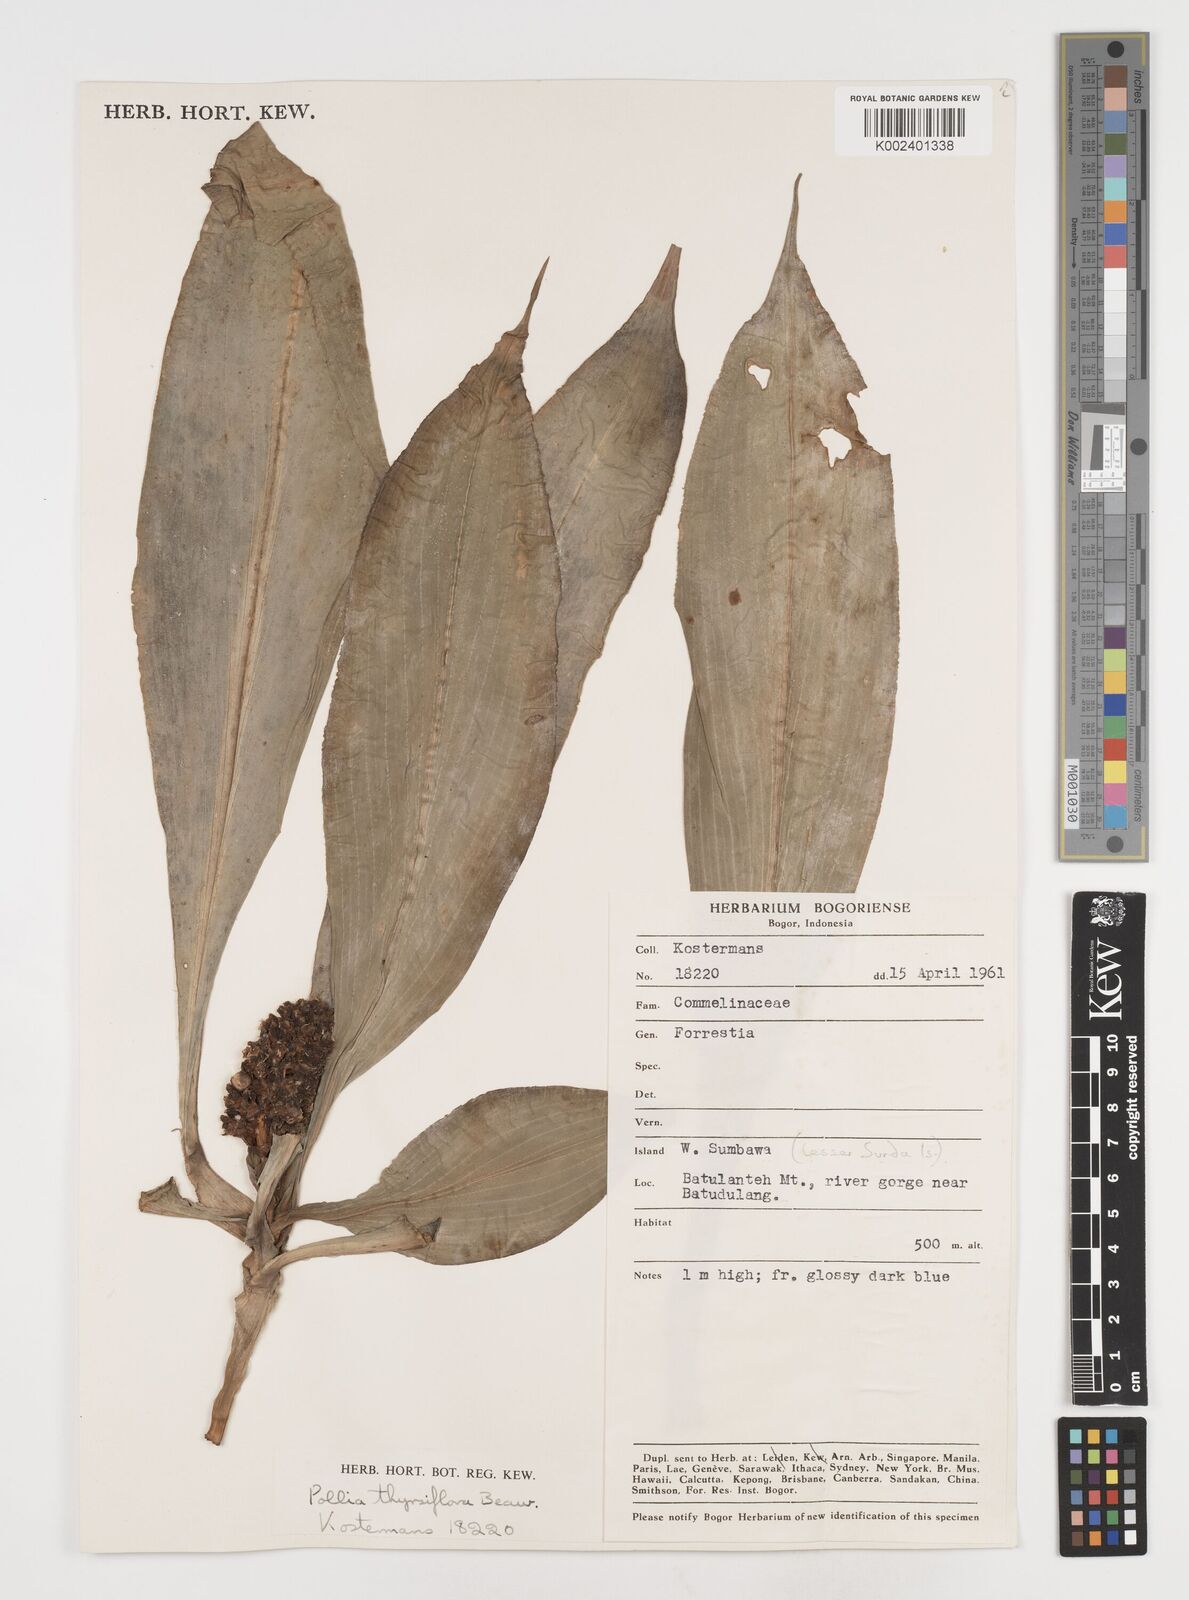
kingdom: Plantae
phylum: Tracheophyta
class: Liliopsida
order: Commelinales
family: Commelinaceae
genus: Pollia
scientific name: Pollia thyrsiflora
